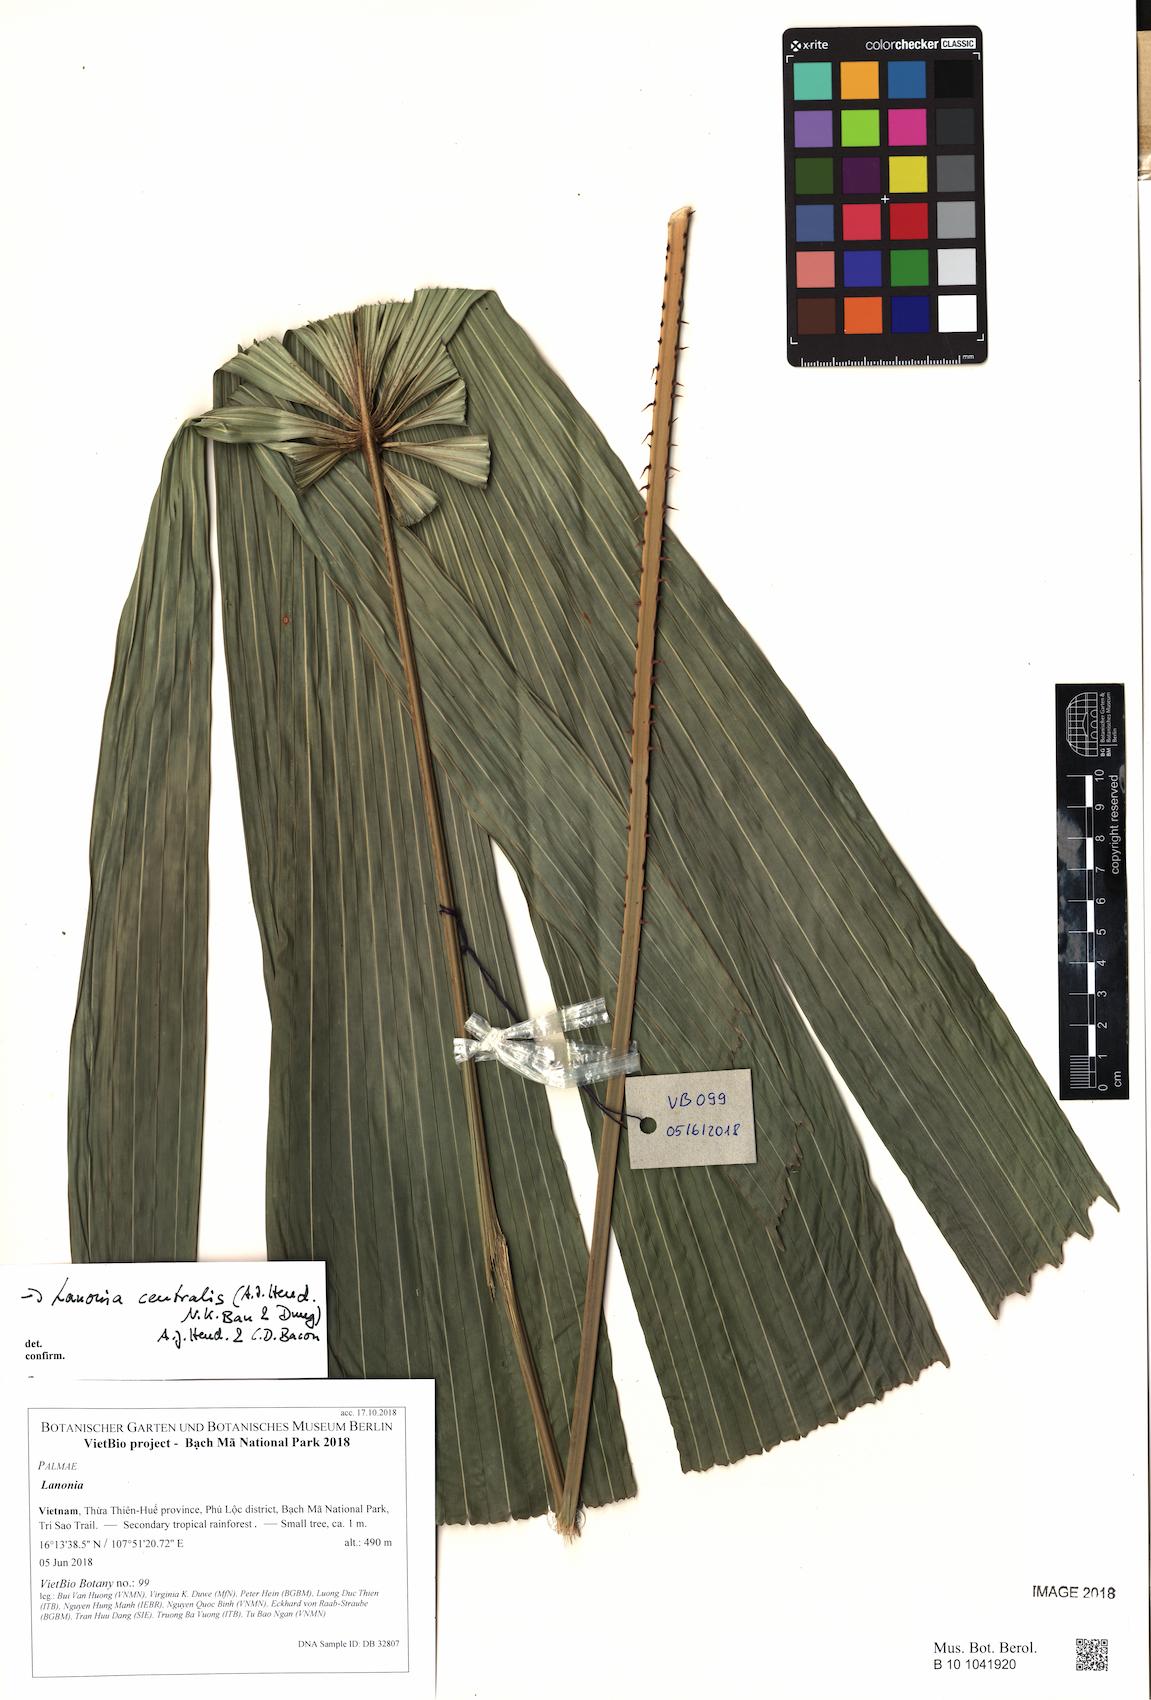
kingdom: Plantae
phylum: Tracheophyta
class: Liliopsida
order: Arecales
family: Arecaceae
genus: Lanonia
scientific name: Lanonia centralis
